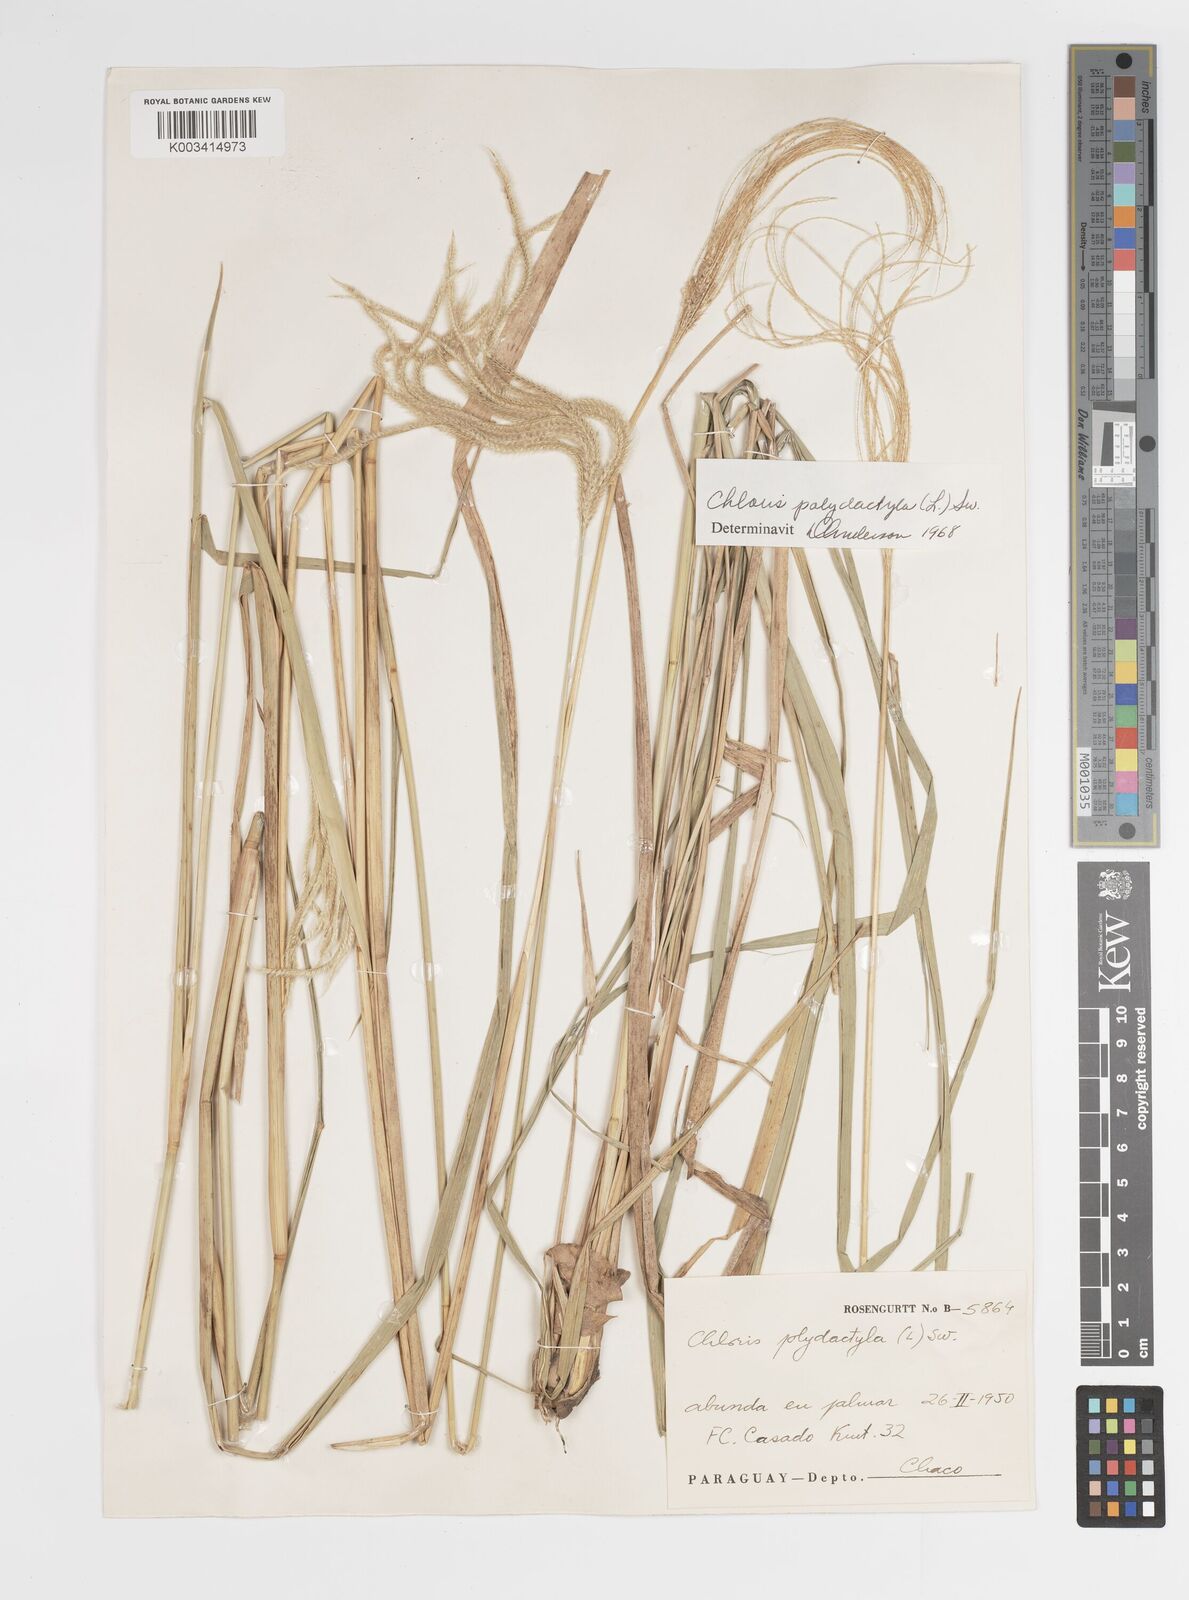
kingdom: Plantae
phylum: Tracheophyta
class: Liliopsida
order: Poales
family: Poaceae
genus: Stapfochloa
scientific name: Stapfochloa elata
